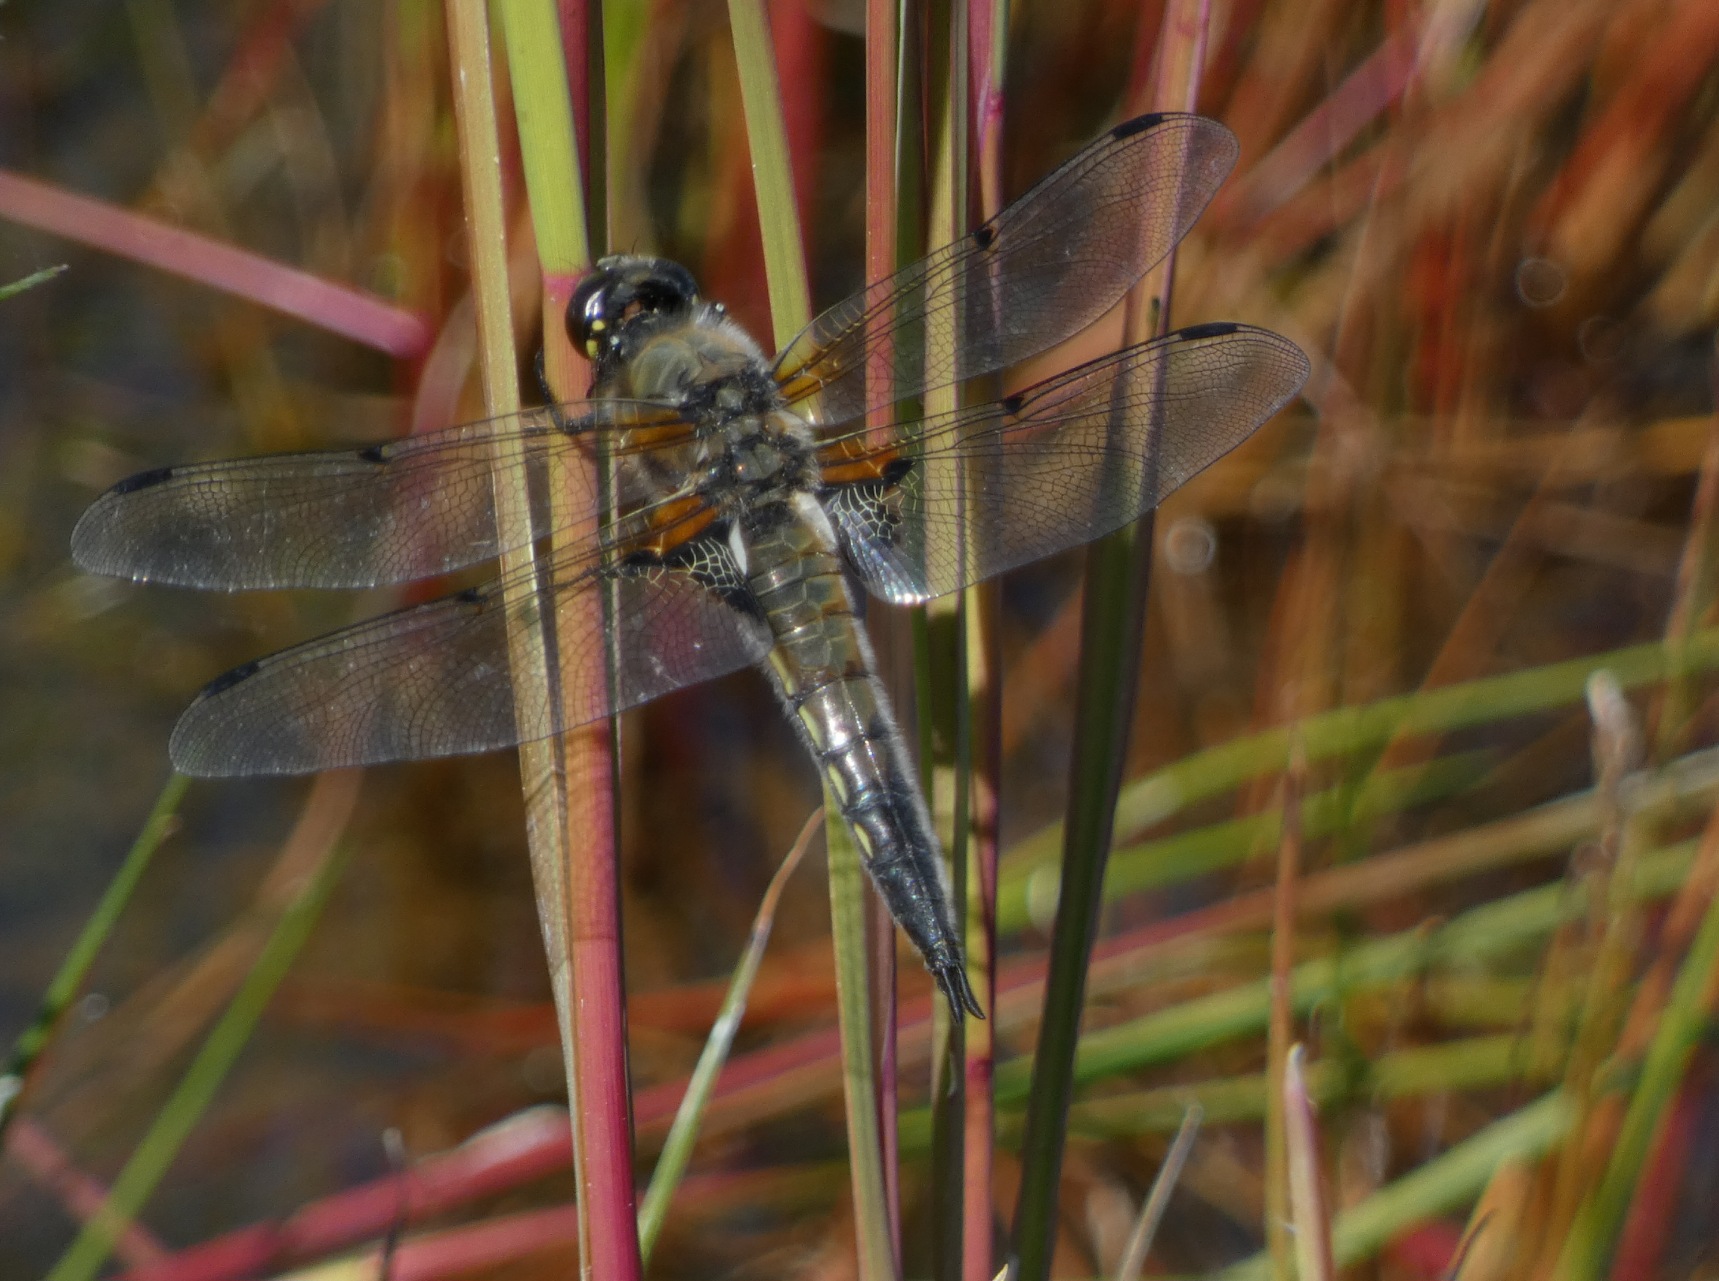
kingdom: Animalia
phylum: Arthropoda
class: Insecta
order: Odonata
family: Libellulidae
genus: Libellula
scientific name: Libellula quadrimaculata
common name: Fireplettet libel
